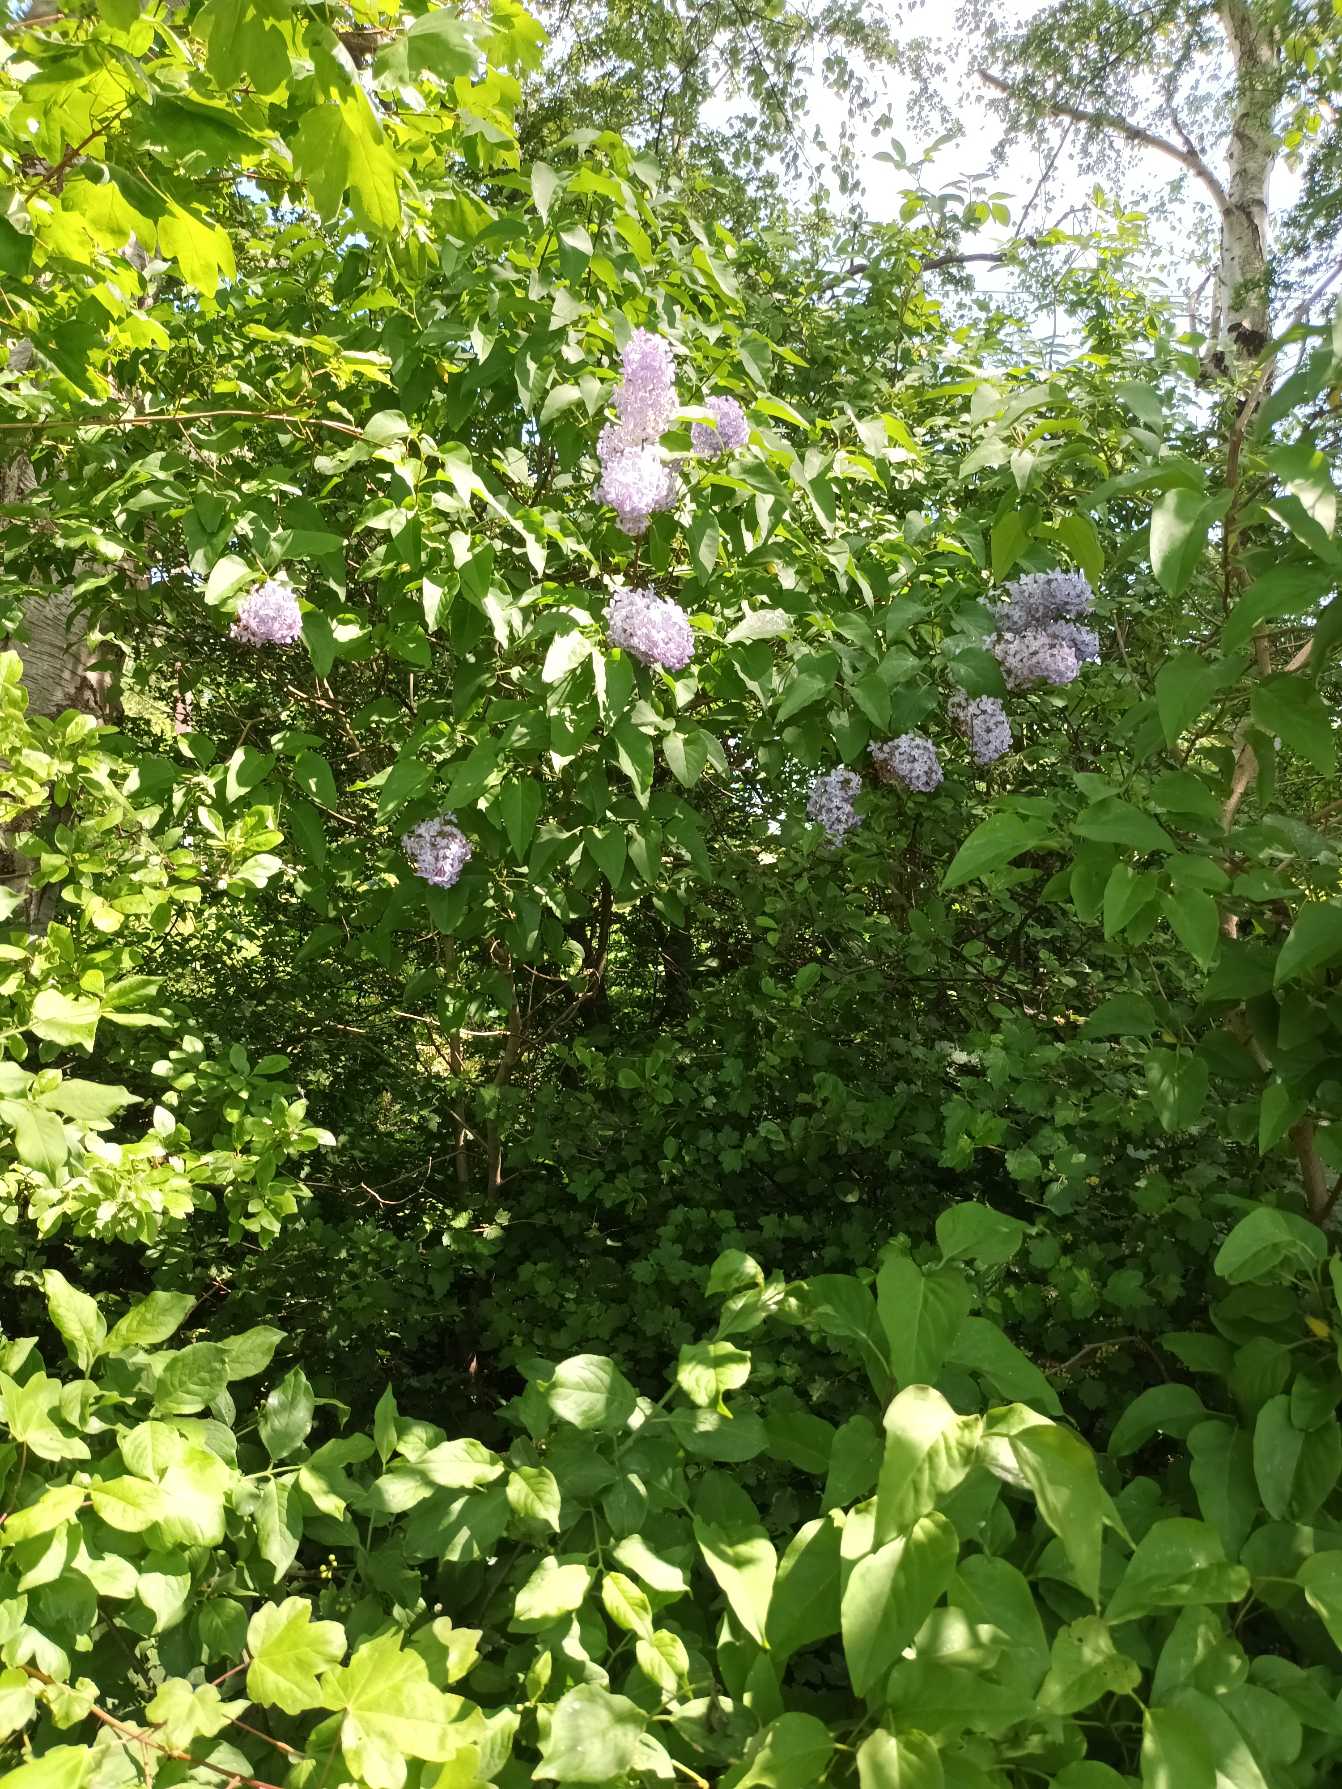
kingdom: Plantae
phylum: Tracheophyta
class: Magnoliopsida
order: Lamiales
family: Oleaceae
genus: Syringa
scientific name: Syringa vulgaris
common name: Syren
